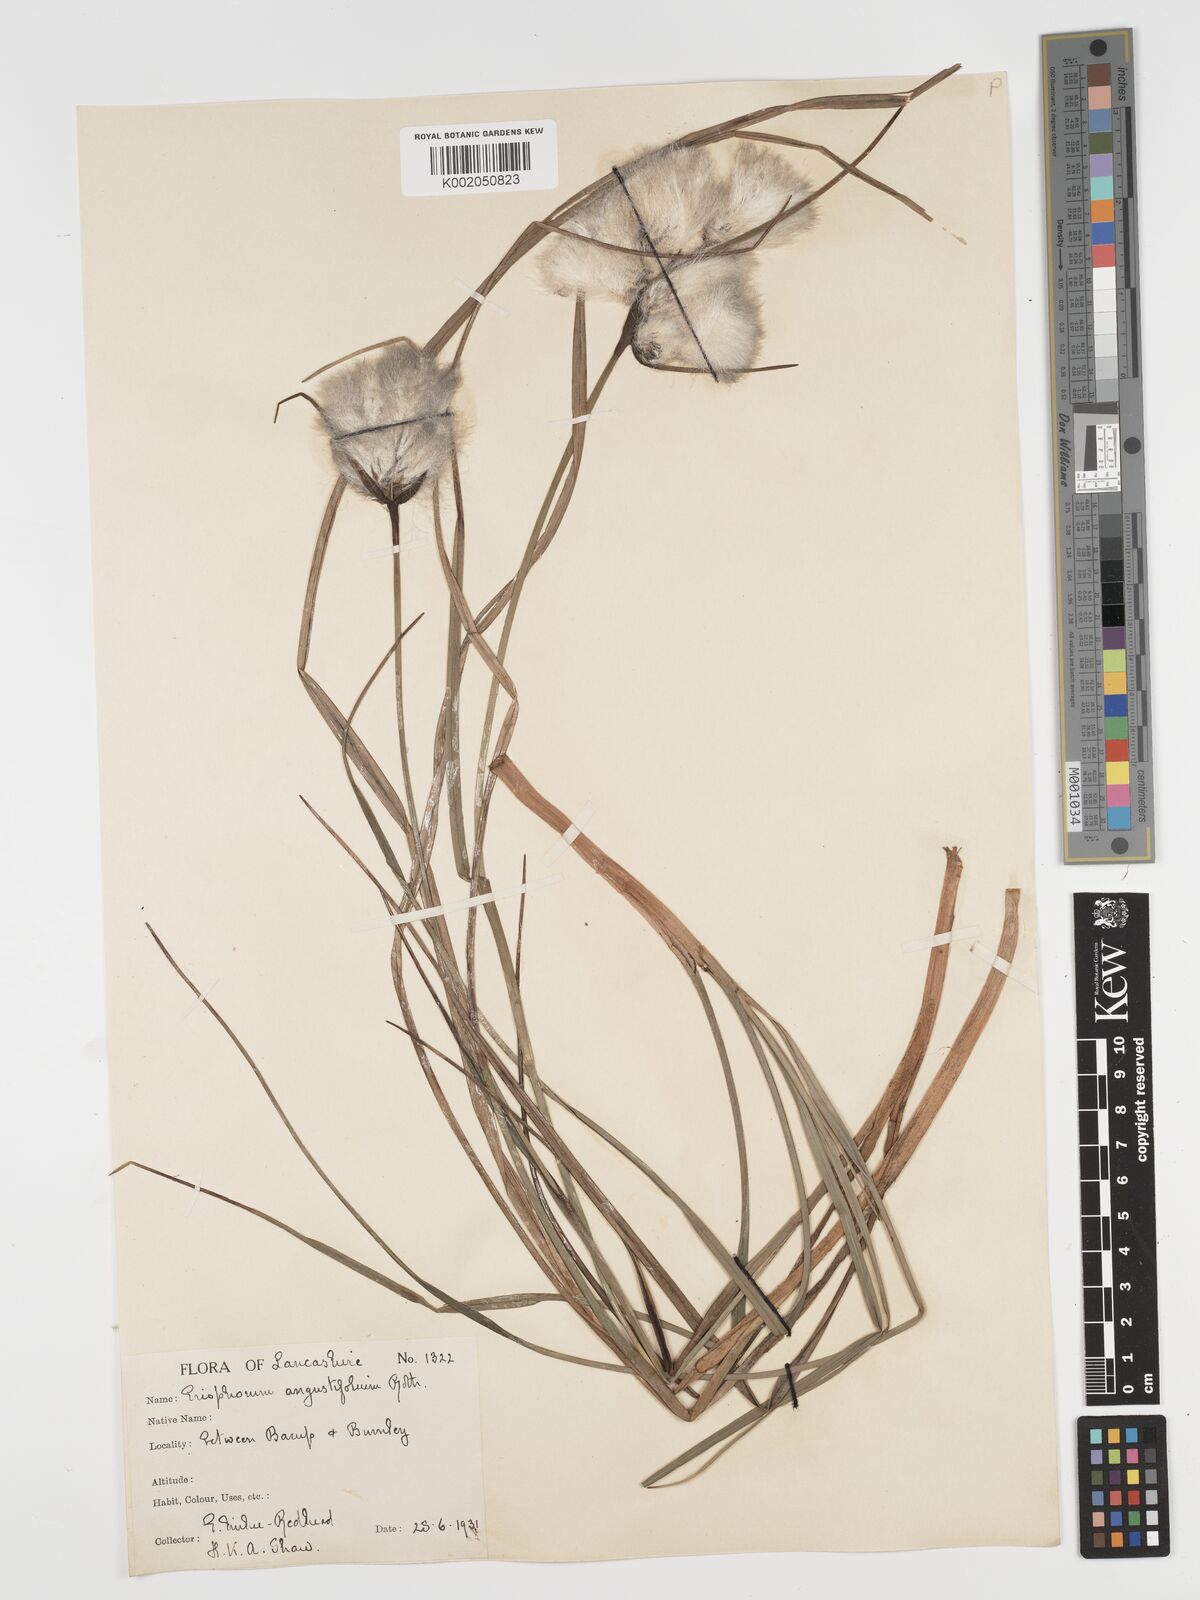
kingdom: Plantae
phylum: Tracheophyta
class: Liliopsida
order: Poales
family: Cyperaceae
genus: Eriophorum
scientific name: Eriophorum angustifolium
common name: Common cottongrass
